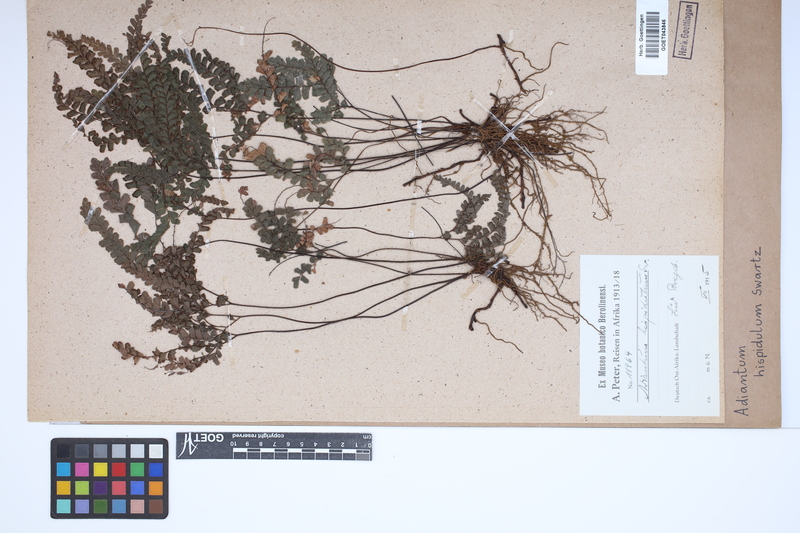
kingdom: Plantae
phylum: Tracheophyta
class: Polypodiopsida
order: Polypodiales
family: Pteridaceae
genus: Adiantum
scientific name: Adiantum hispidulum
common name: Rough maidenhair
